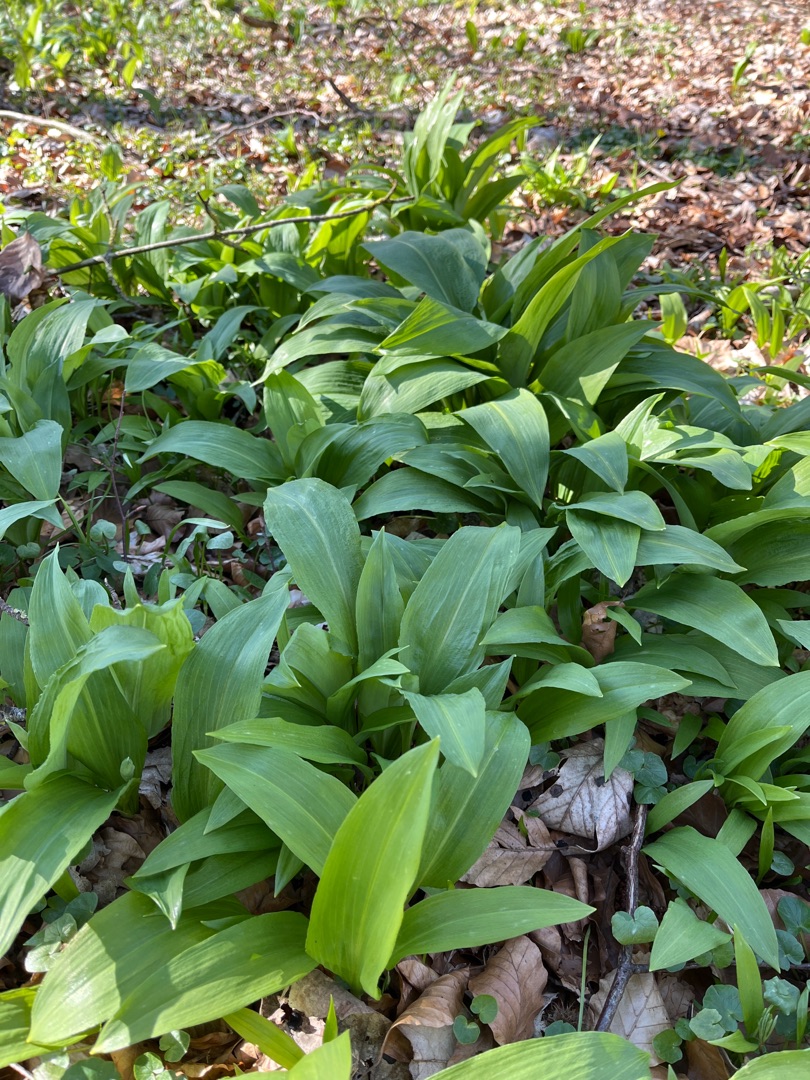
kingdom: Plantae
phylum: Tracheophyta
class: Liliopsida
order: Asparagales
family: Amaryllidaceae
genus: Allium
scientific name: Allium ursinum
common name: Rams-løg
